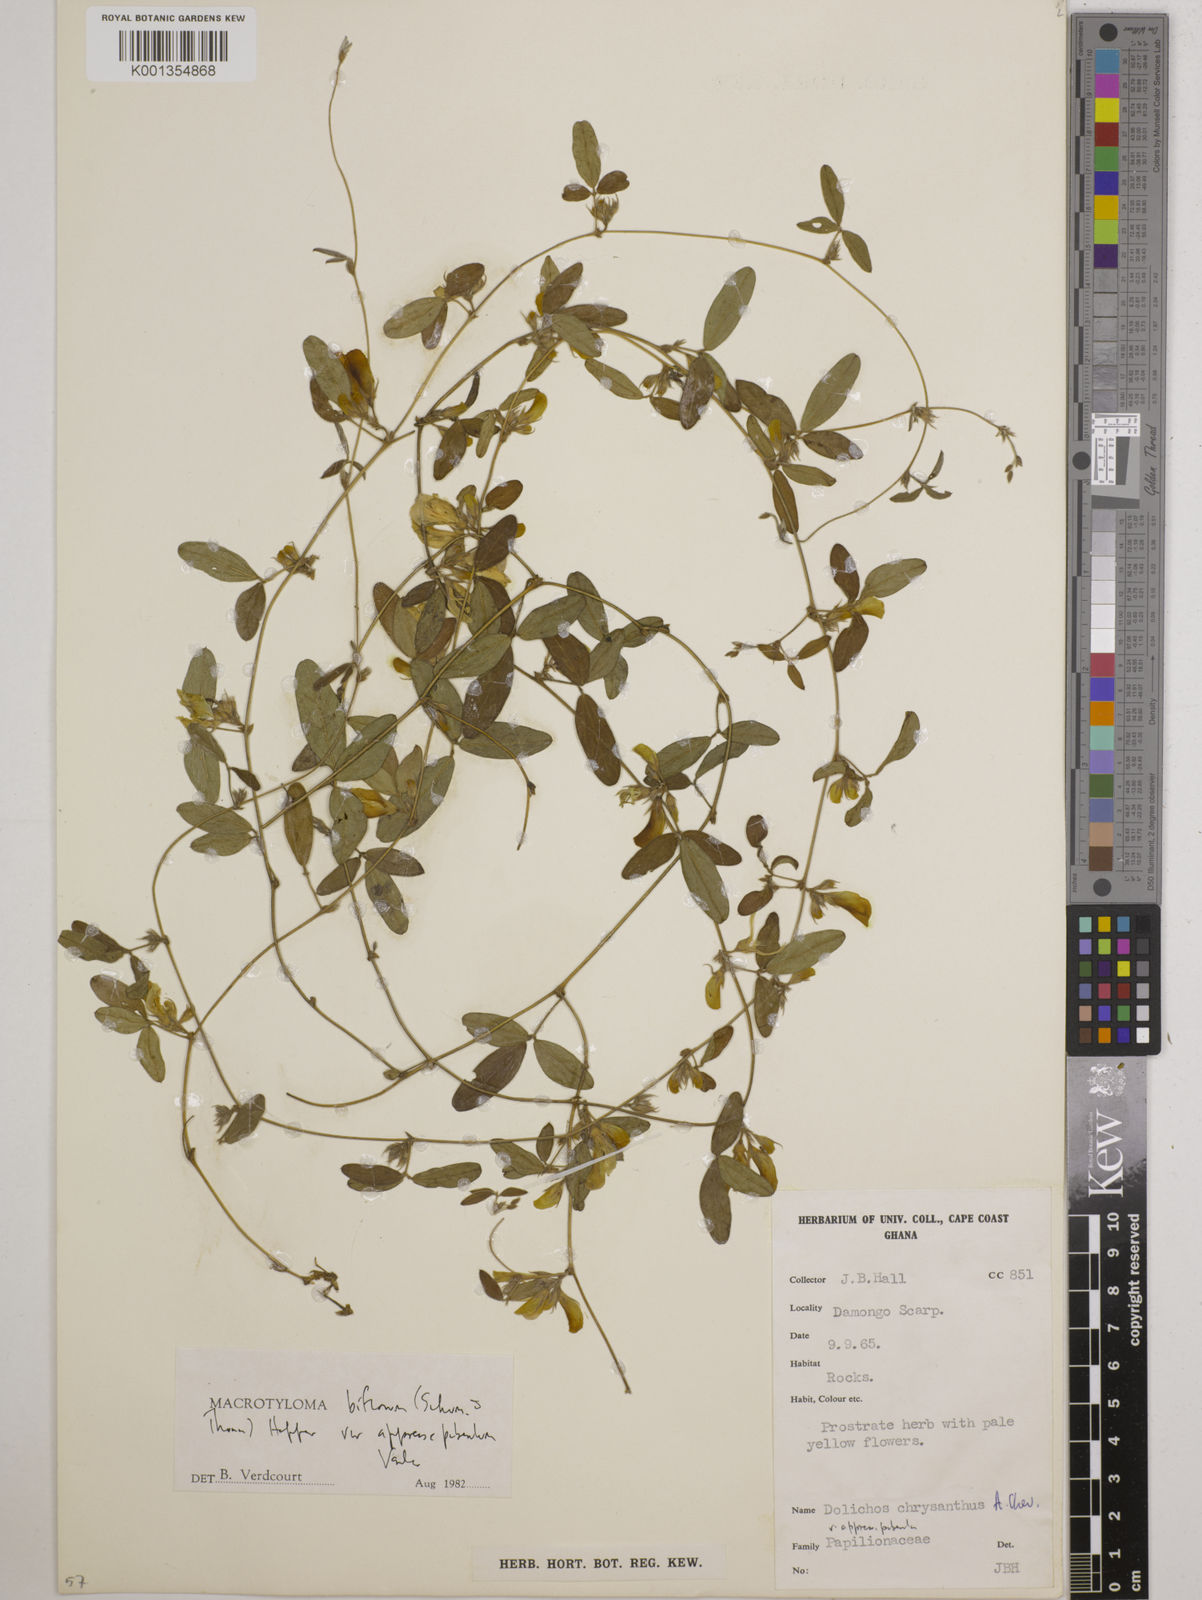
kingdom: Plantae
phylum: Tracheophyta
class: Magnoliopsida
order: Fabales
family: Fabaceae
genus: Macrotyloma
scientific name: Macrotyloma biflorum
